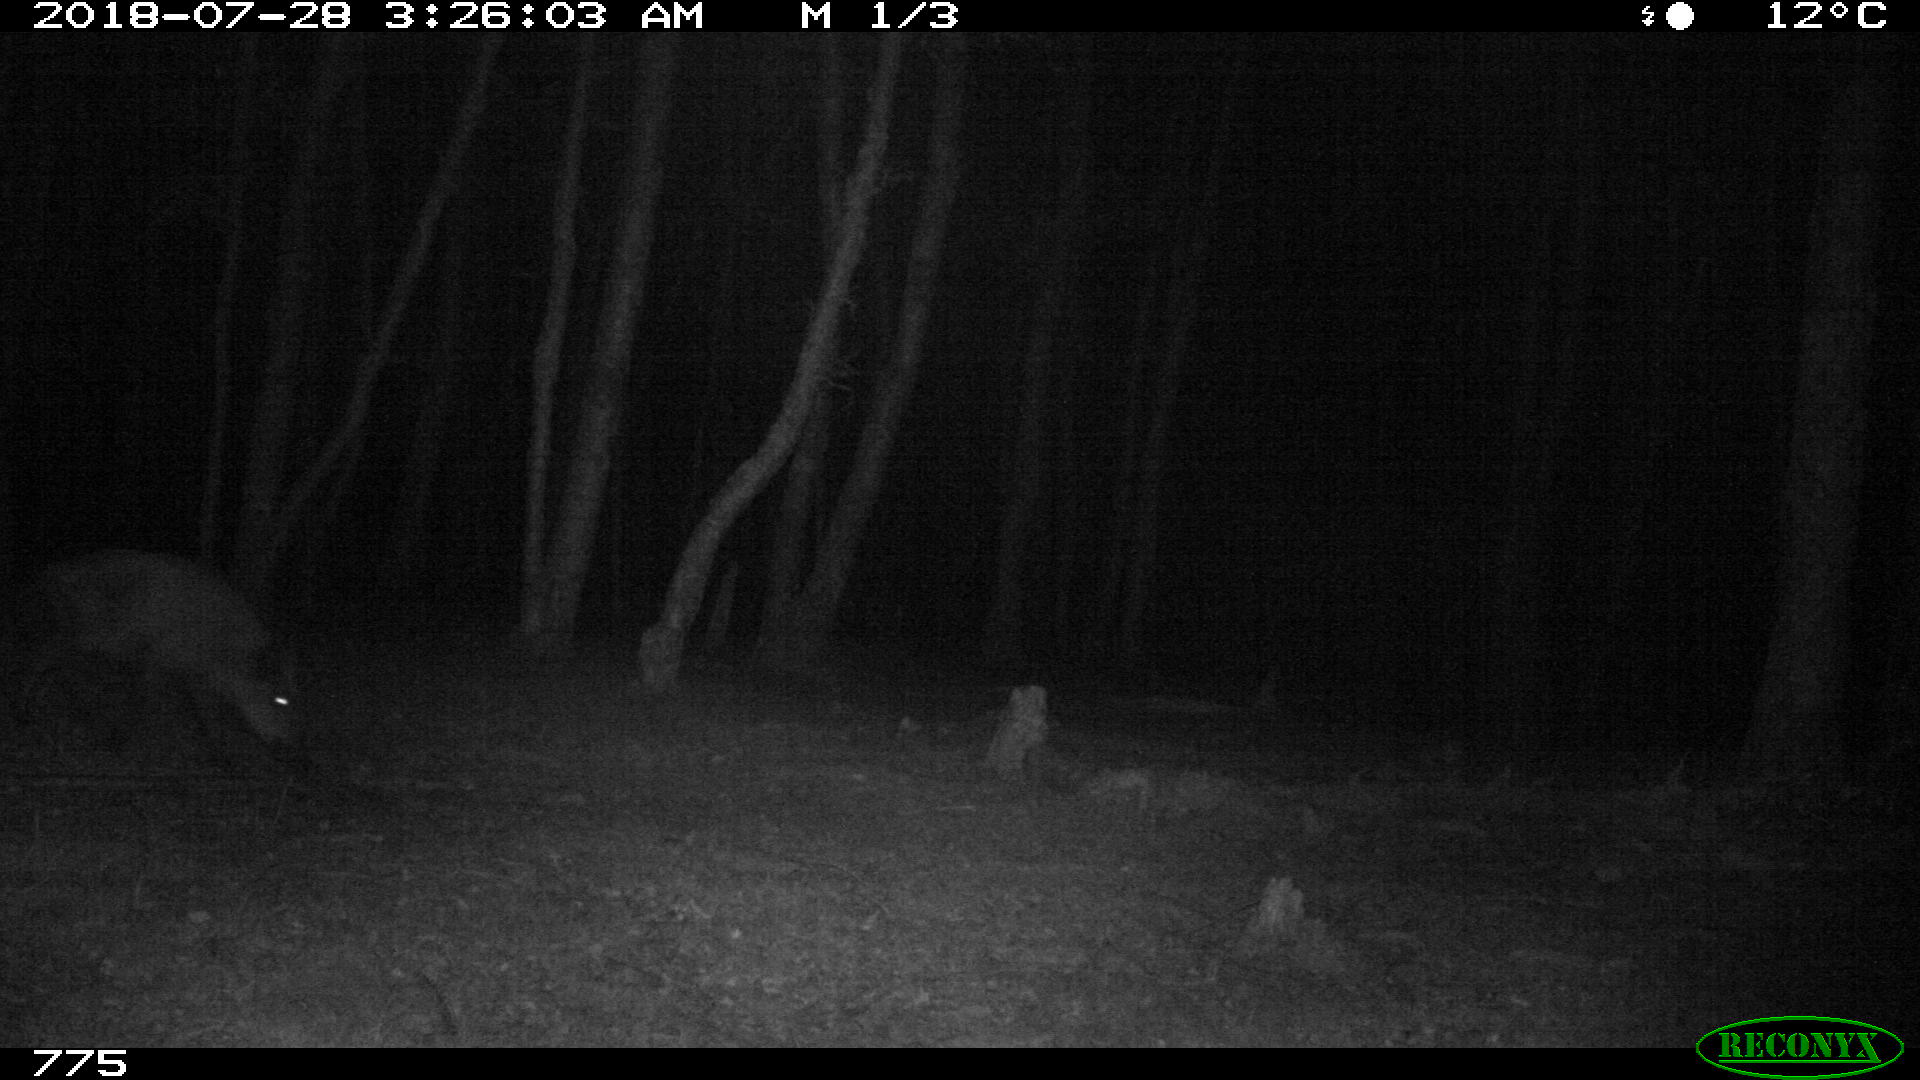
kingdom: Animalia
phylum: Chordata
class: Mammalia
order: Artiodactyla
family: Suidae
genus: Sus
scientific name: Sus scrofa
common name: Wild boar
